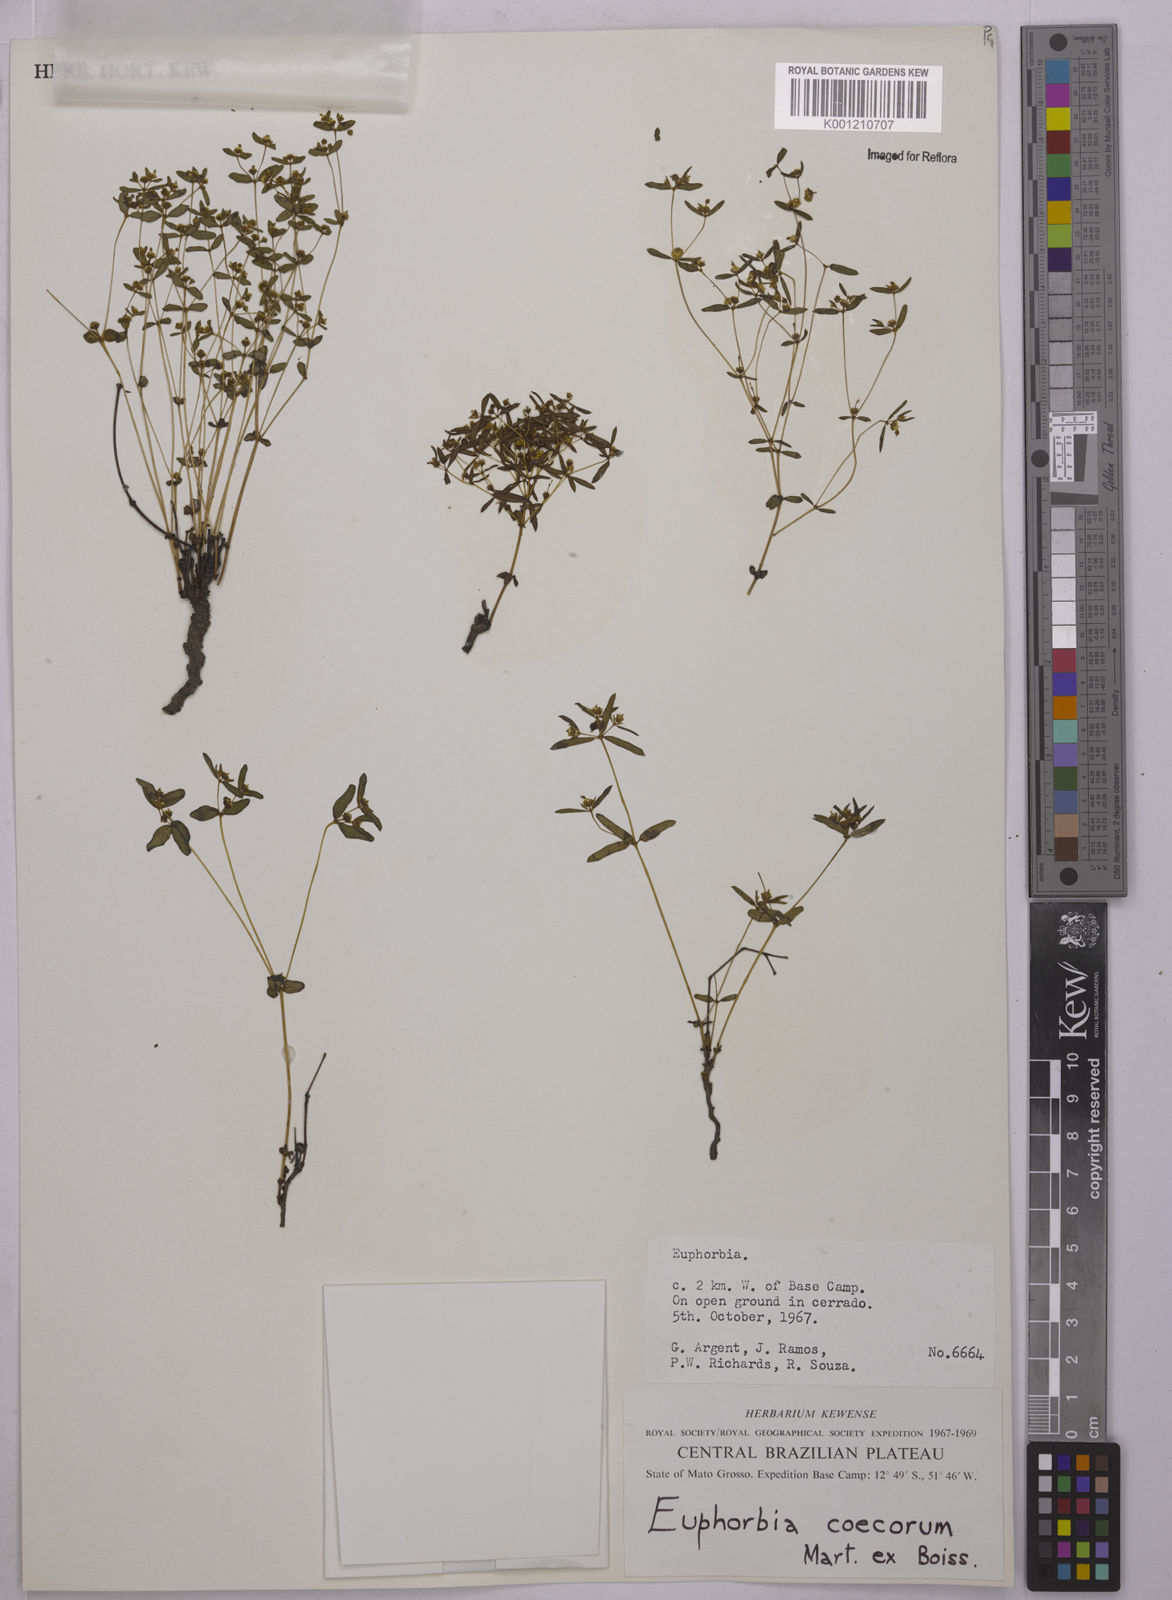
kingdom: Plantae
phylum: Tracheophyta
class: Magnoliopsida
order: Malpighiales
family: Euphorbiaceae
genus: Euphorbia
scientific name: Euphorbia potentilloides
